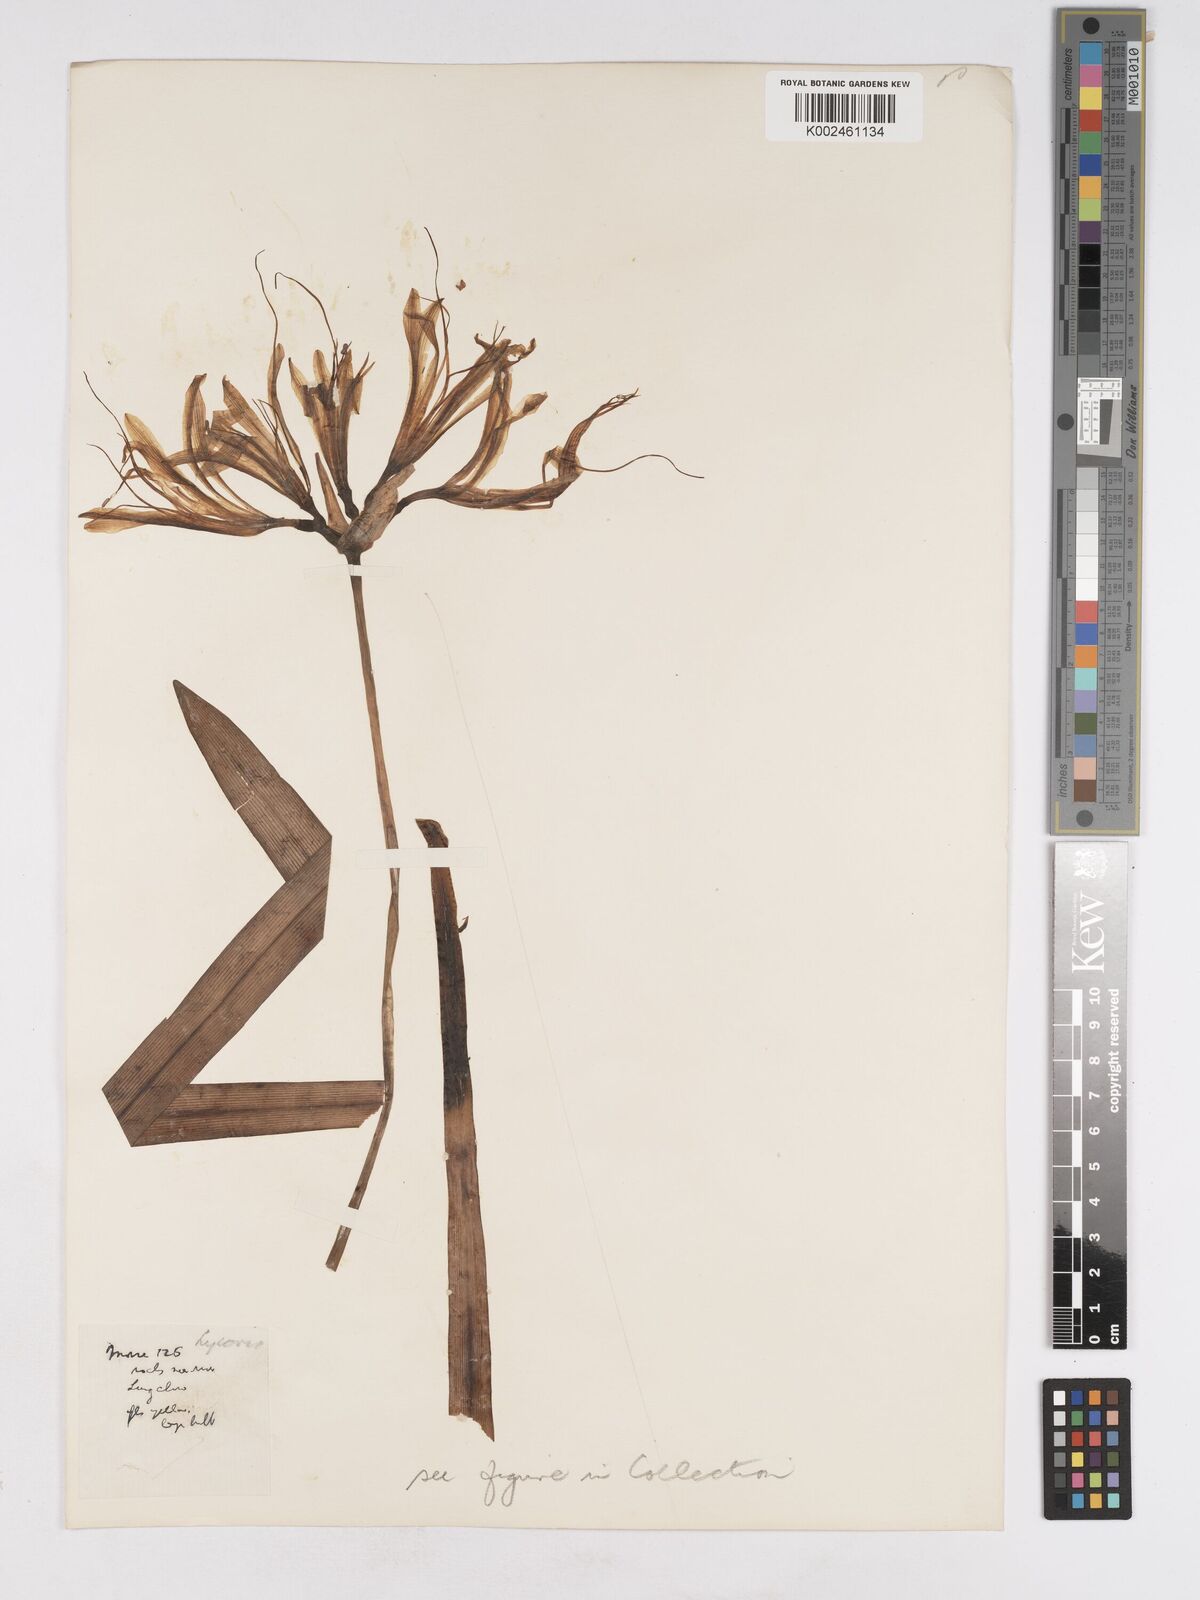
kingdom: Plantae
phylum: Tracheophyta
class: Liliopsida
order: Asparagales
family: Amaryllidaceae
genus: Lycoris
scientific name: Lycoris
